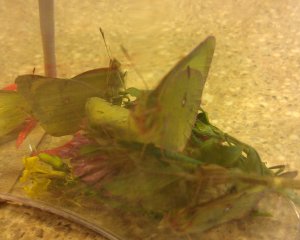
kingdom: Animalia
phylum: Arthropoda
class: Insecta
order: Lepidoptera
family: Pieridae
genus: Colias
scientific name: Colias philodice
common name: Clouded Sulphur
